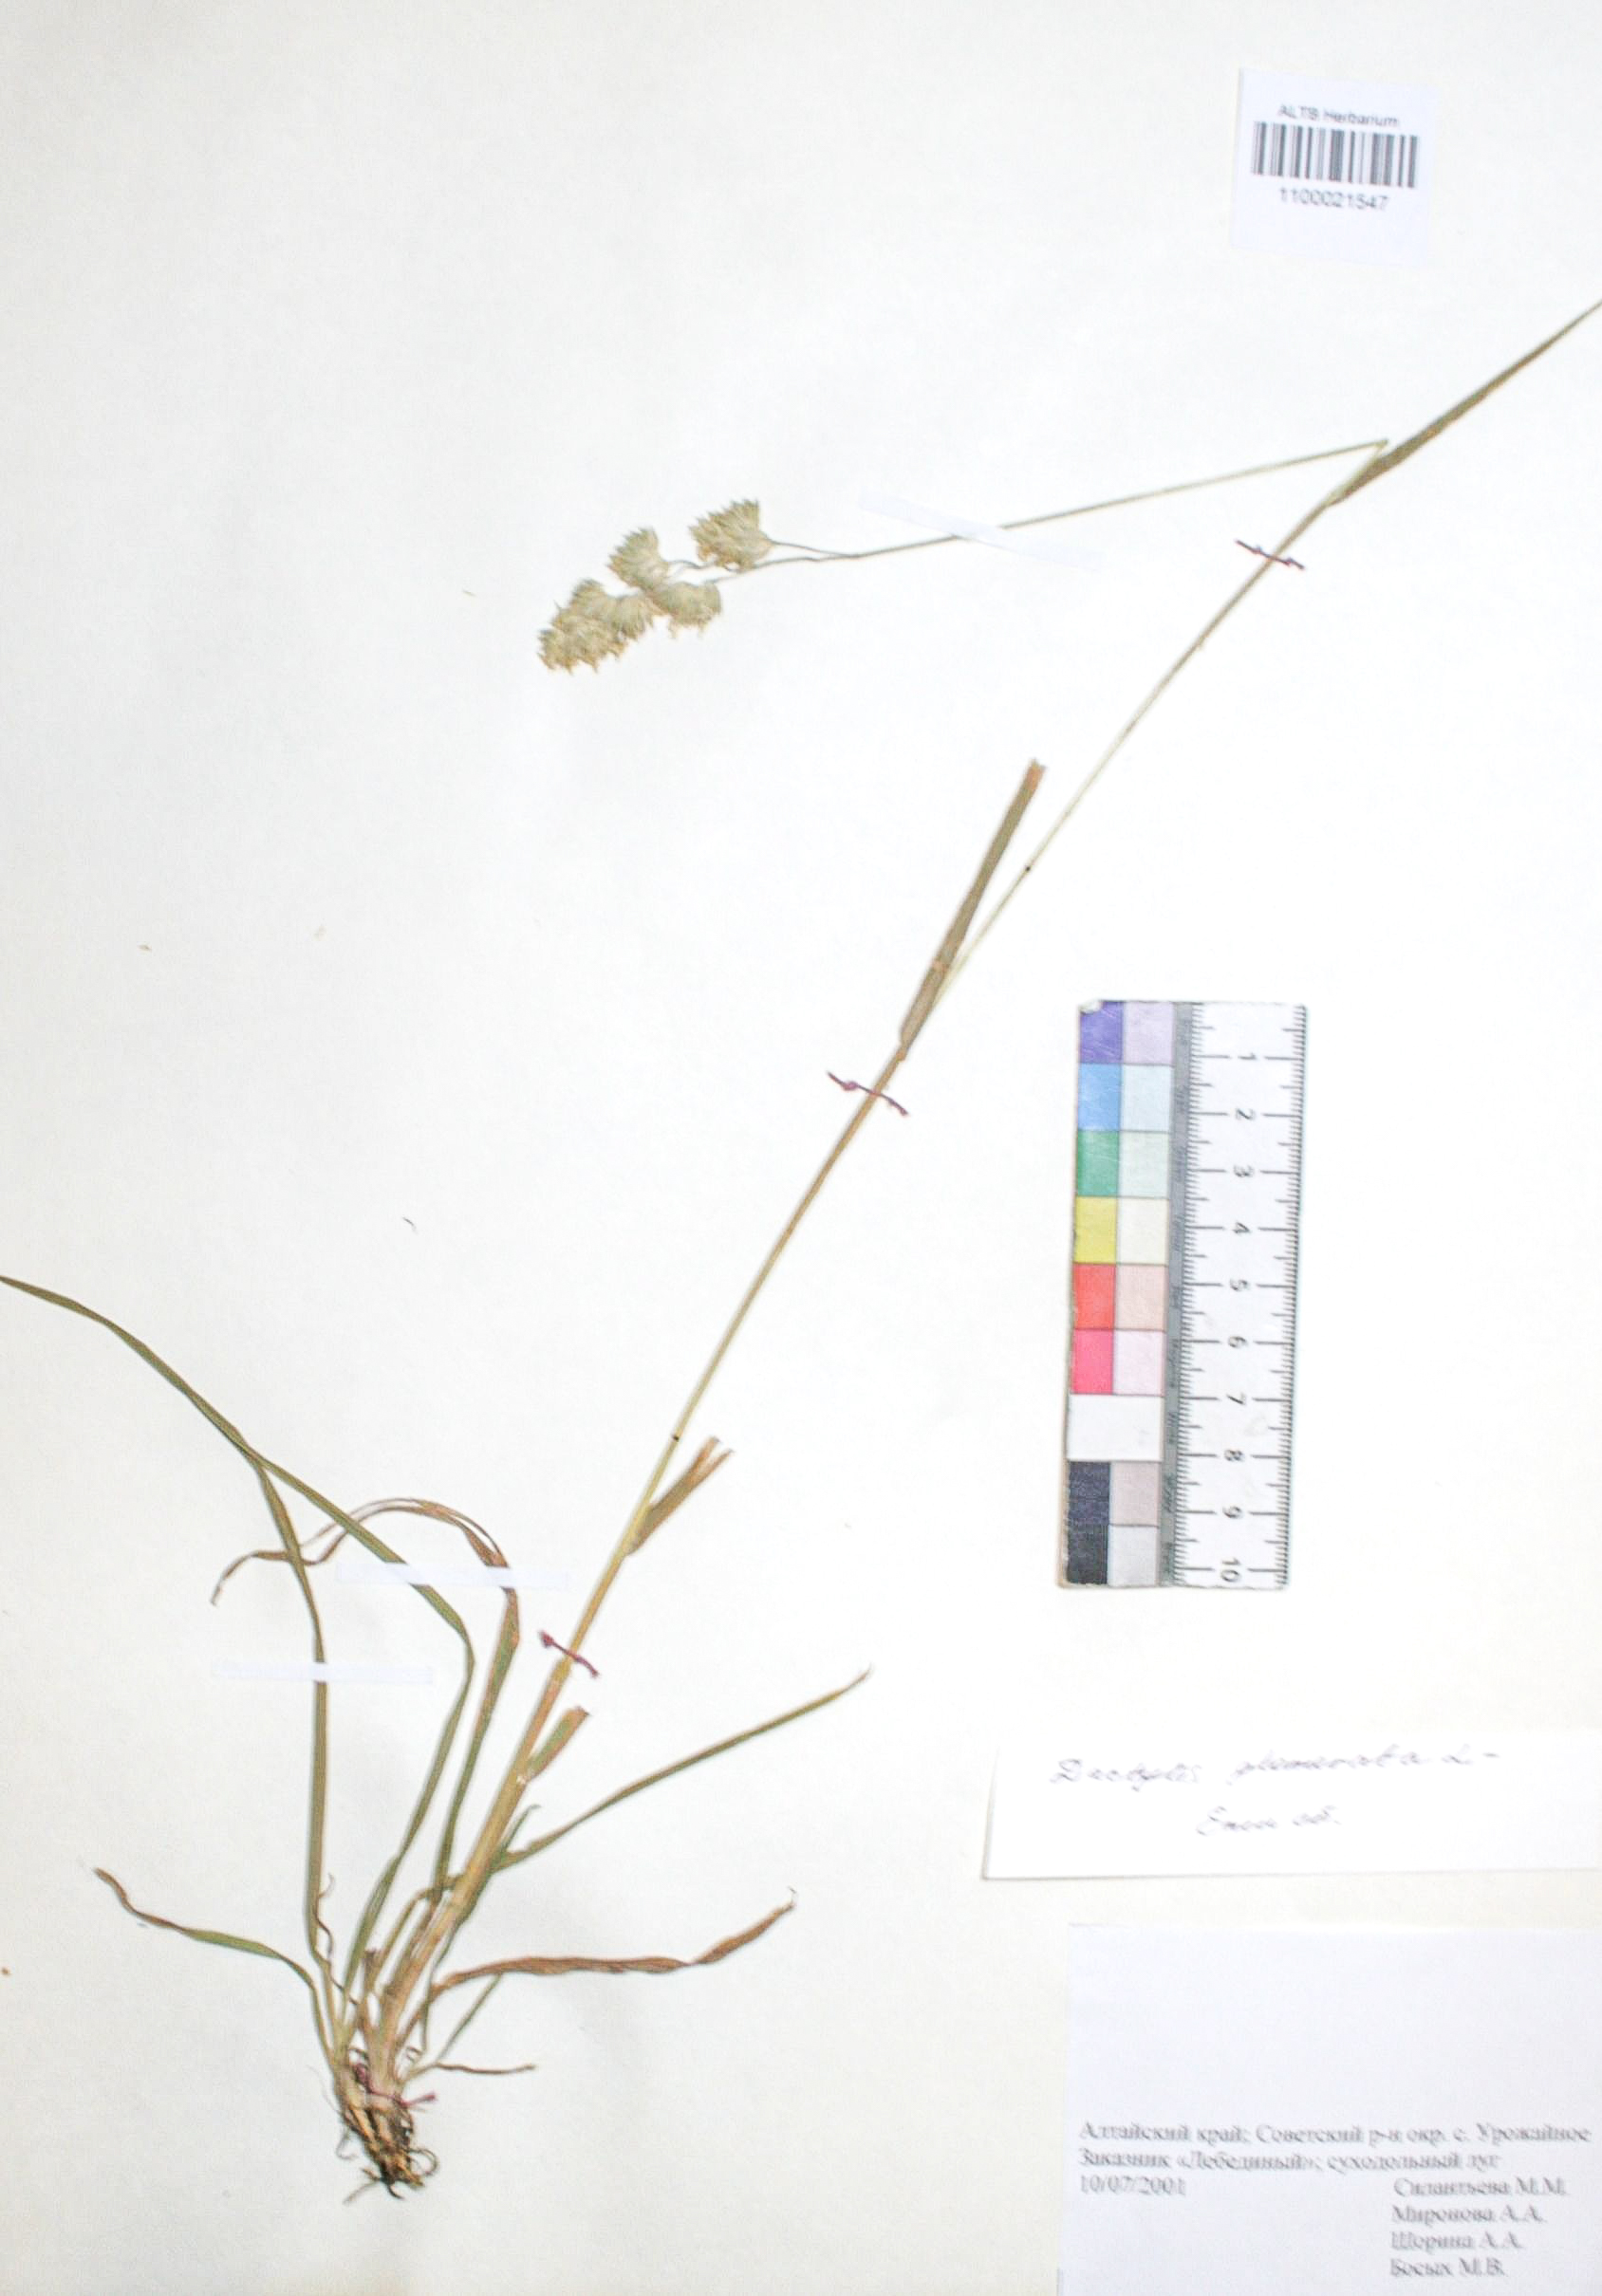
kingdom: Plantae
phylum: Tracheophyta
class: Liliopsida
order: Poales
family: Poaceae
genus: Dactylis
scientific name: Dactylis glomerata
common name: Orchardgrass
